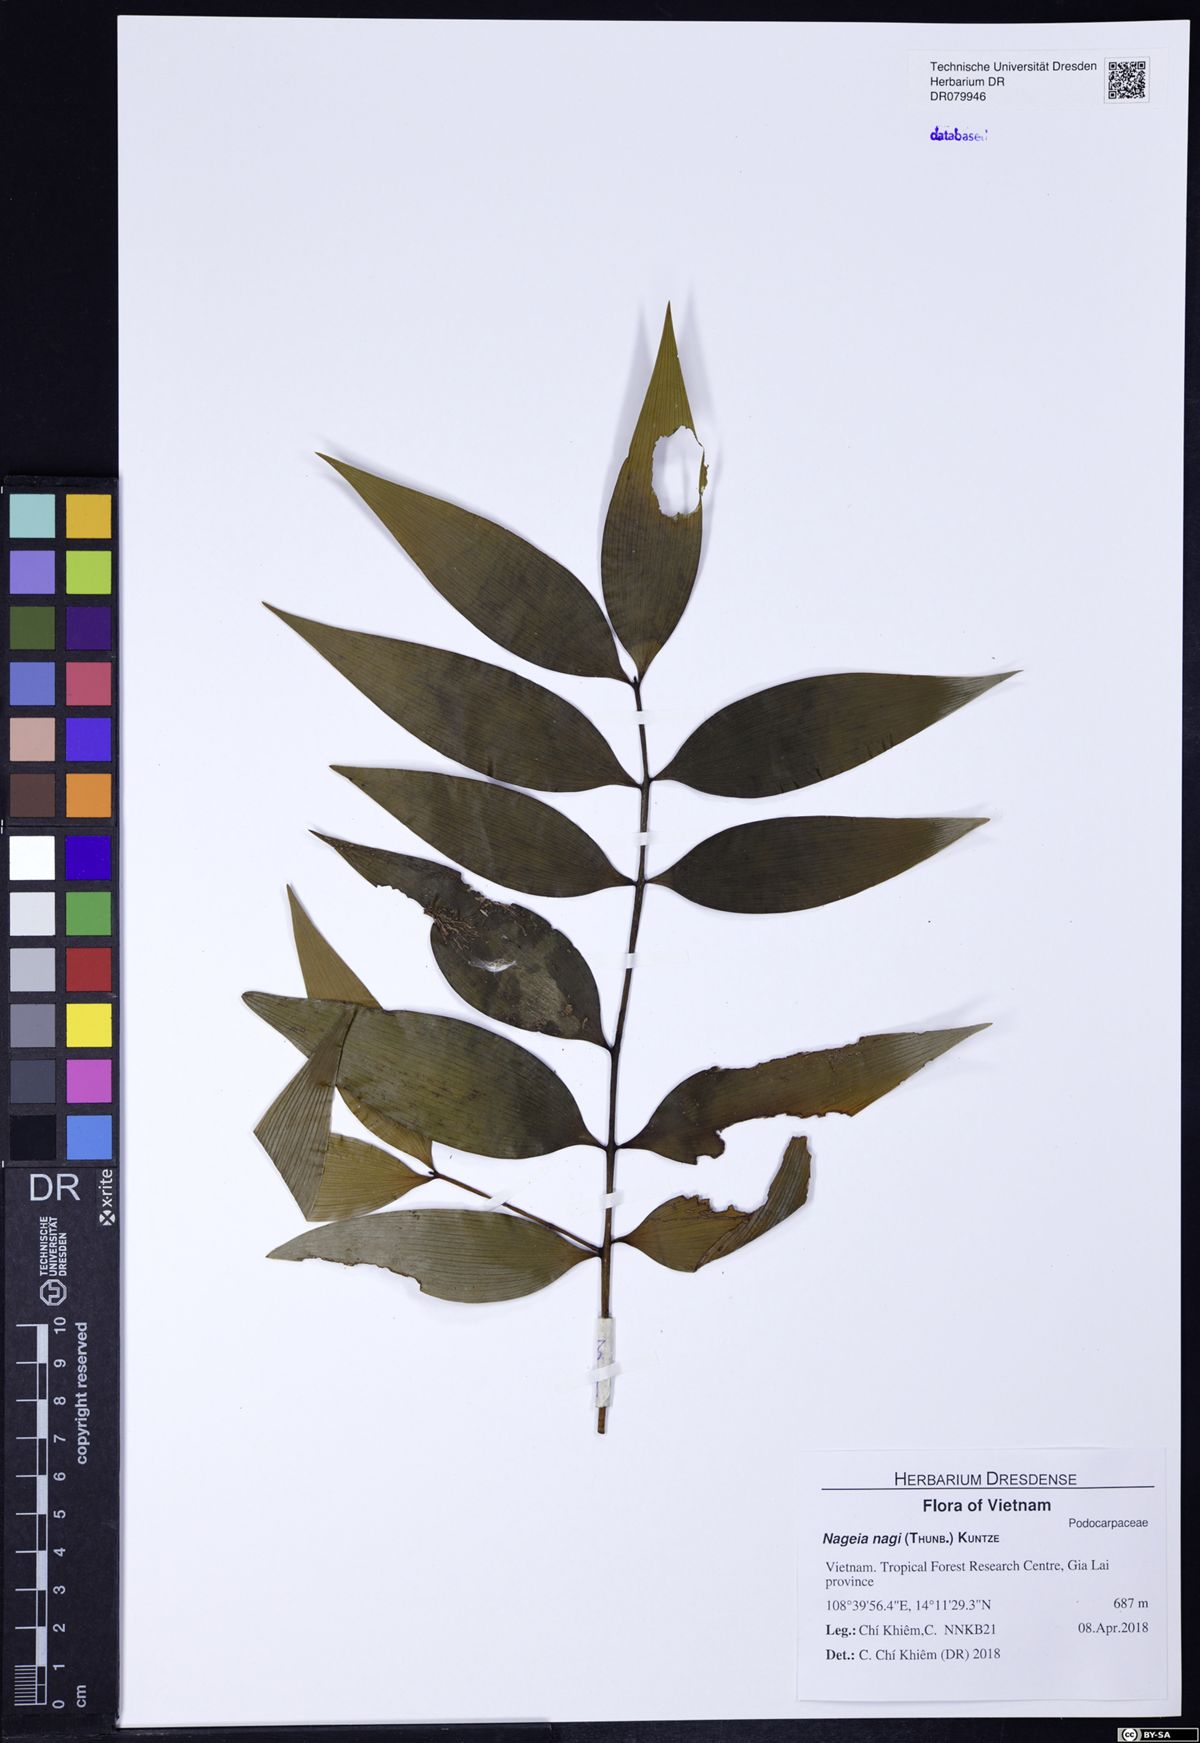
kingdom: Plantae
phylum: Tracheophyta
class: Pinopsida
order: Pinales
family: Podocarpaceae
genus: Nageia
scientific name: Nageia nagi
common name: Kaphal
